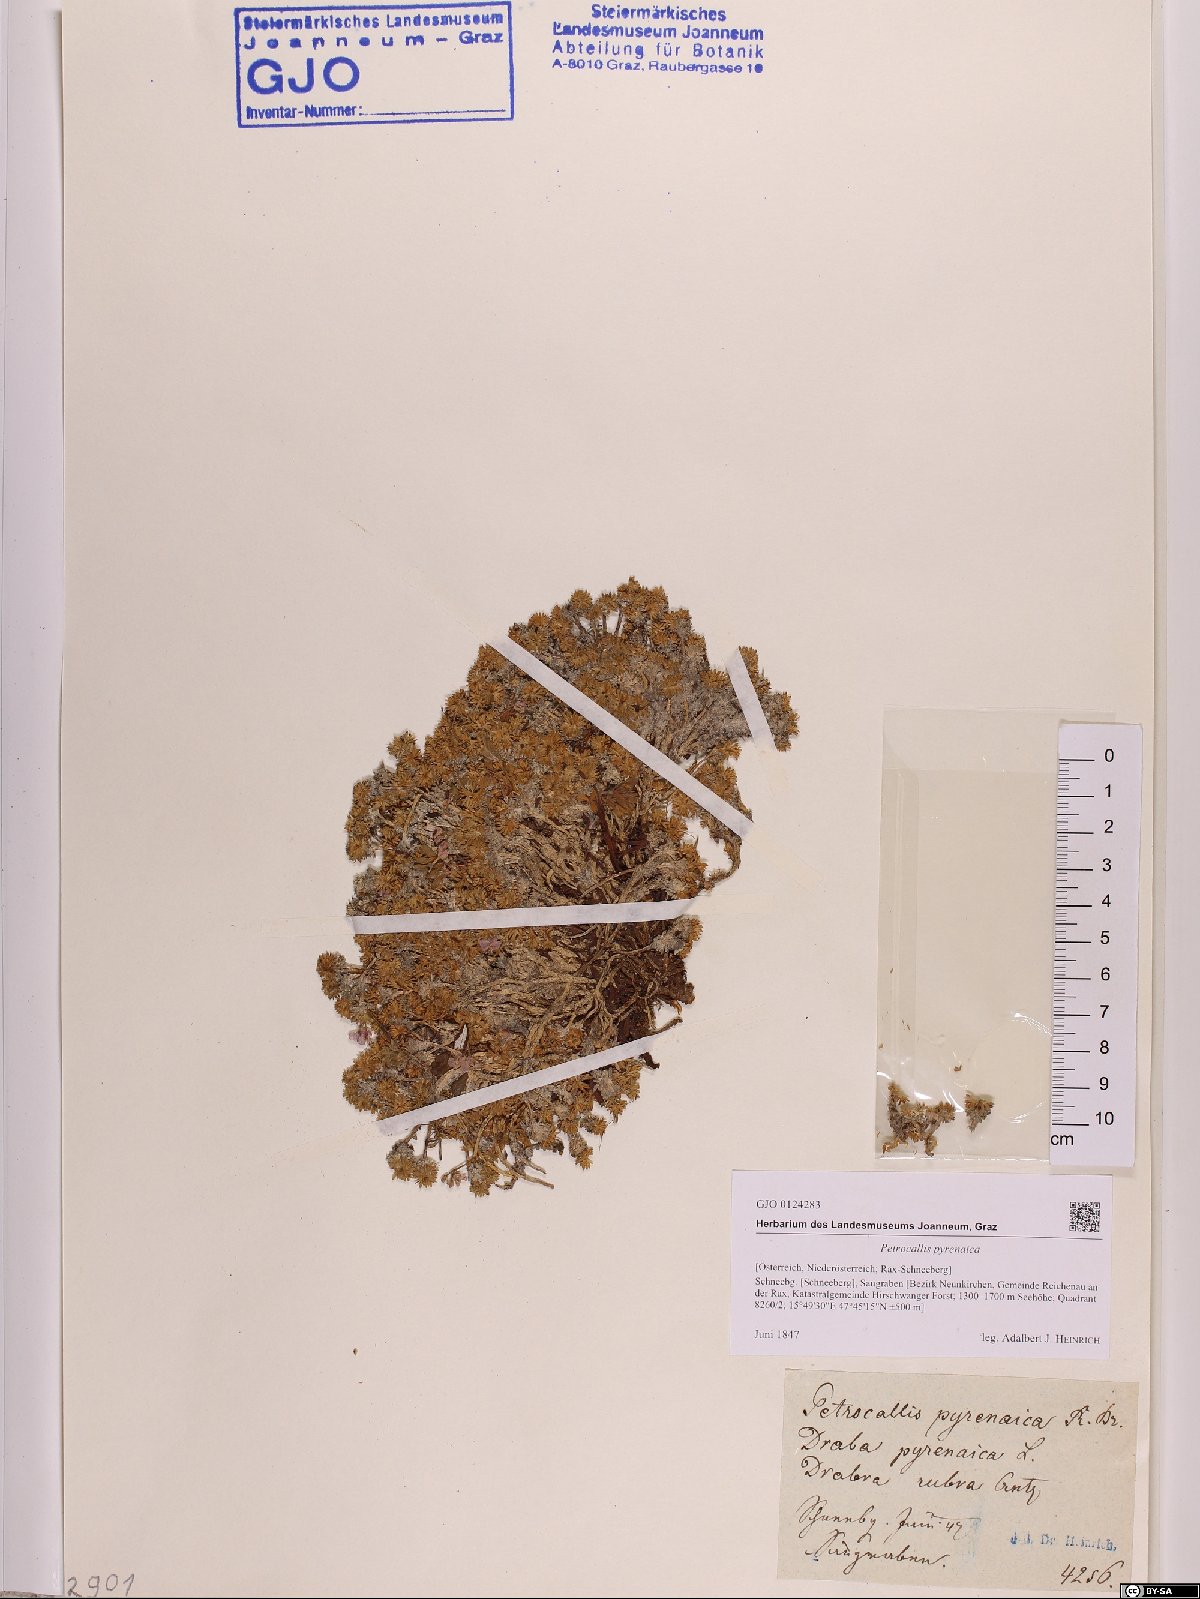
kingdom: Plantae
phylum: Tracheophyta
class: Magnoliopsida
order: Brassicales
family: Brassicaceae
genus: Petrocallis
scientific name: Petrocallis pyrenaica
